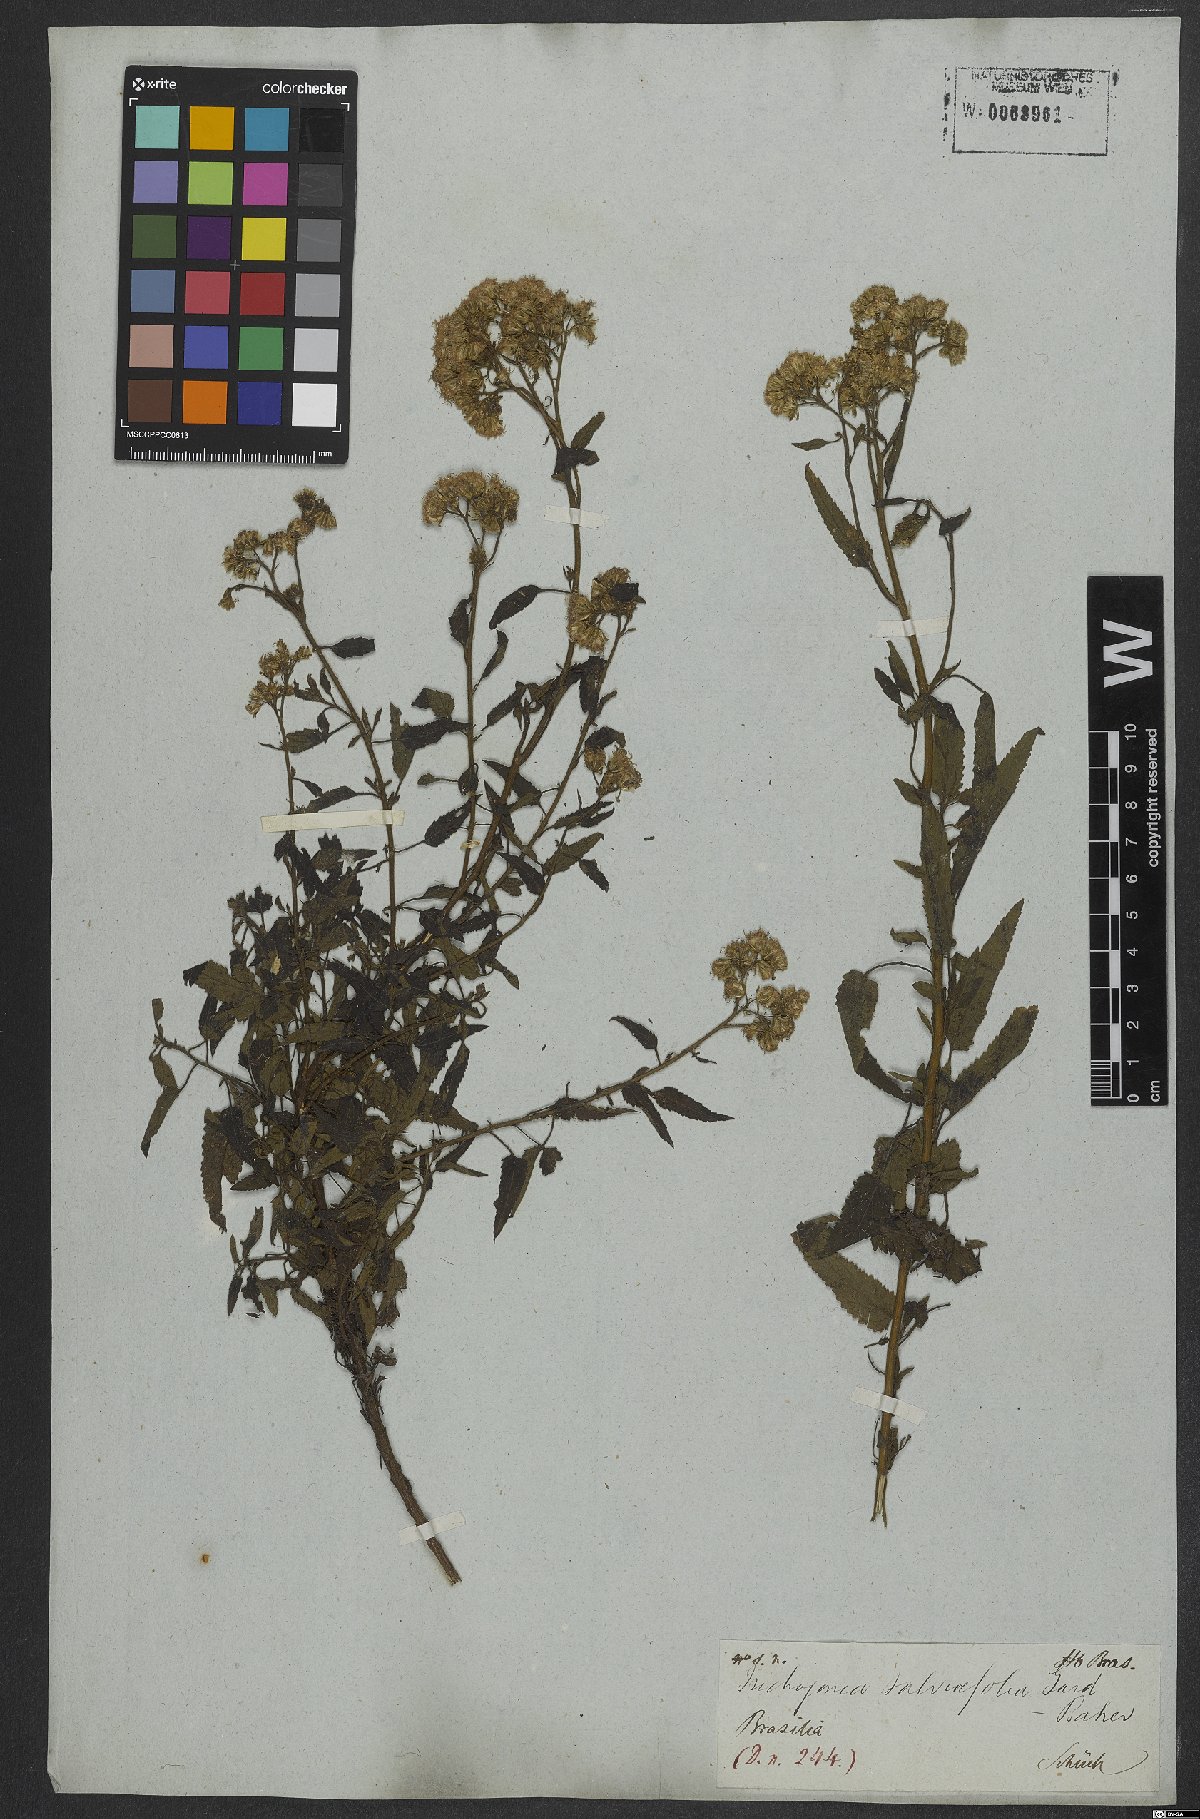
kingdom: Plantae
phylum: Tracheophyta
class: Magnoliopsida
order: Asterales
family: Asteraceae
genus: Trichogonia
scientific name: Trichogonia salviifolia
